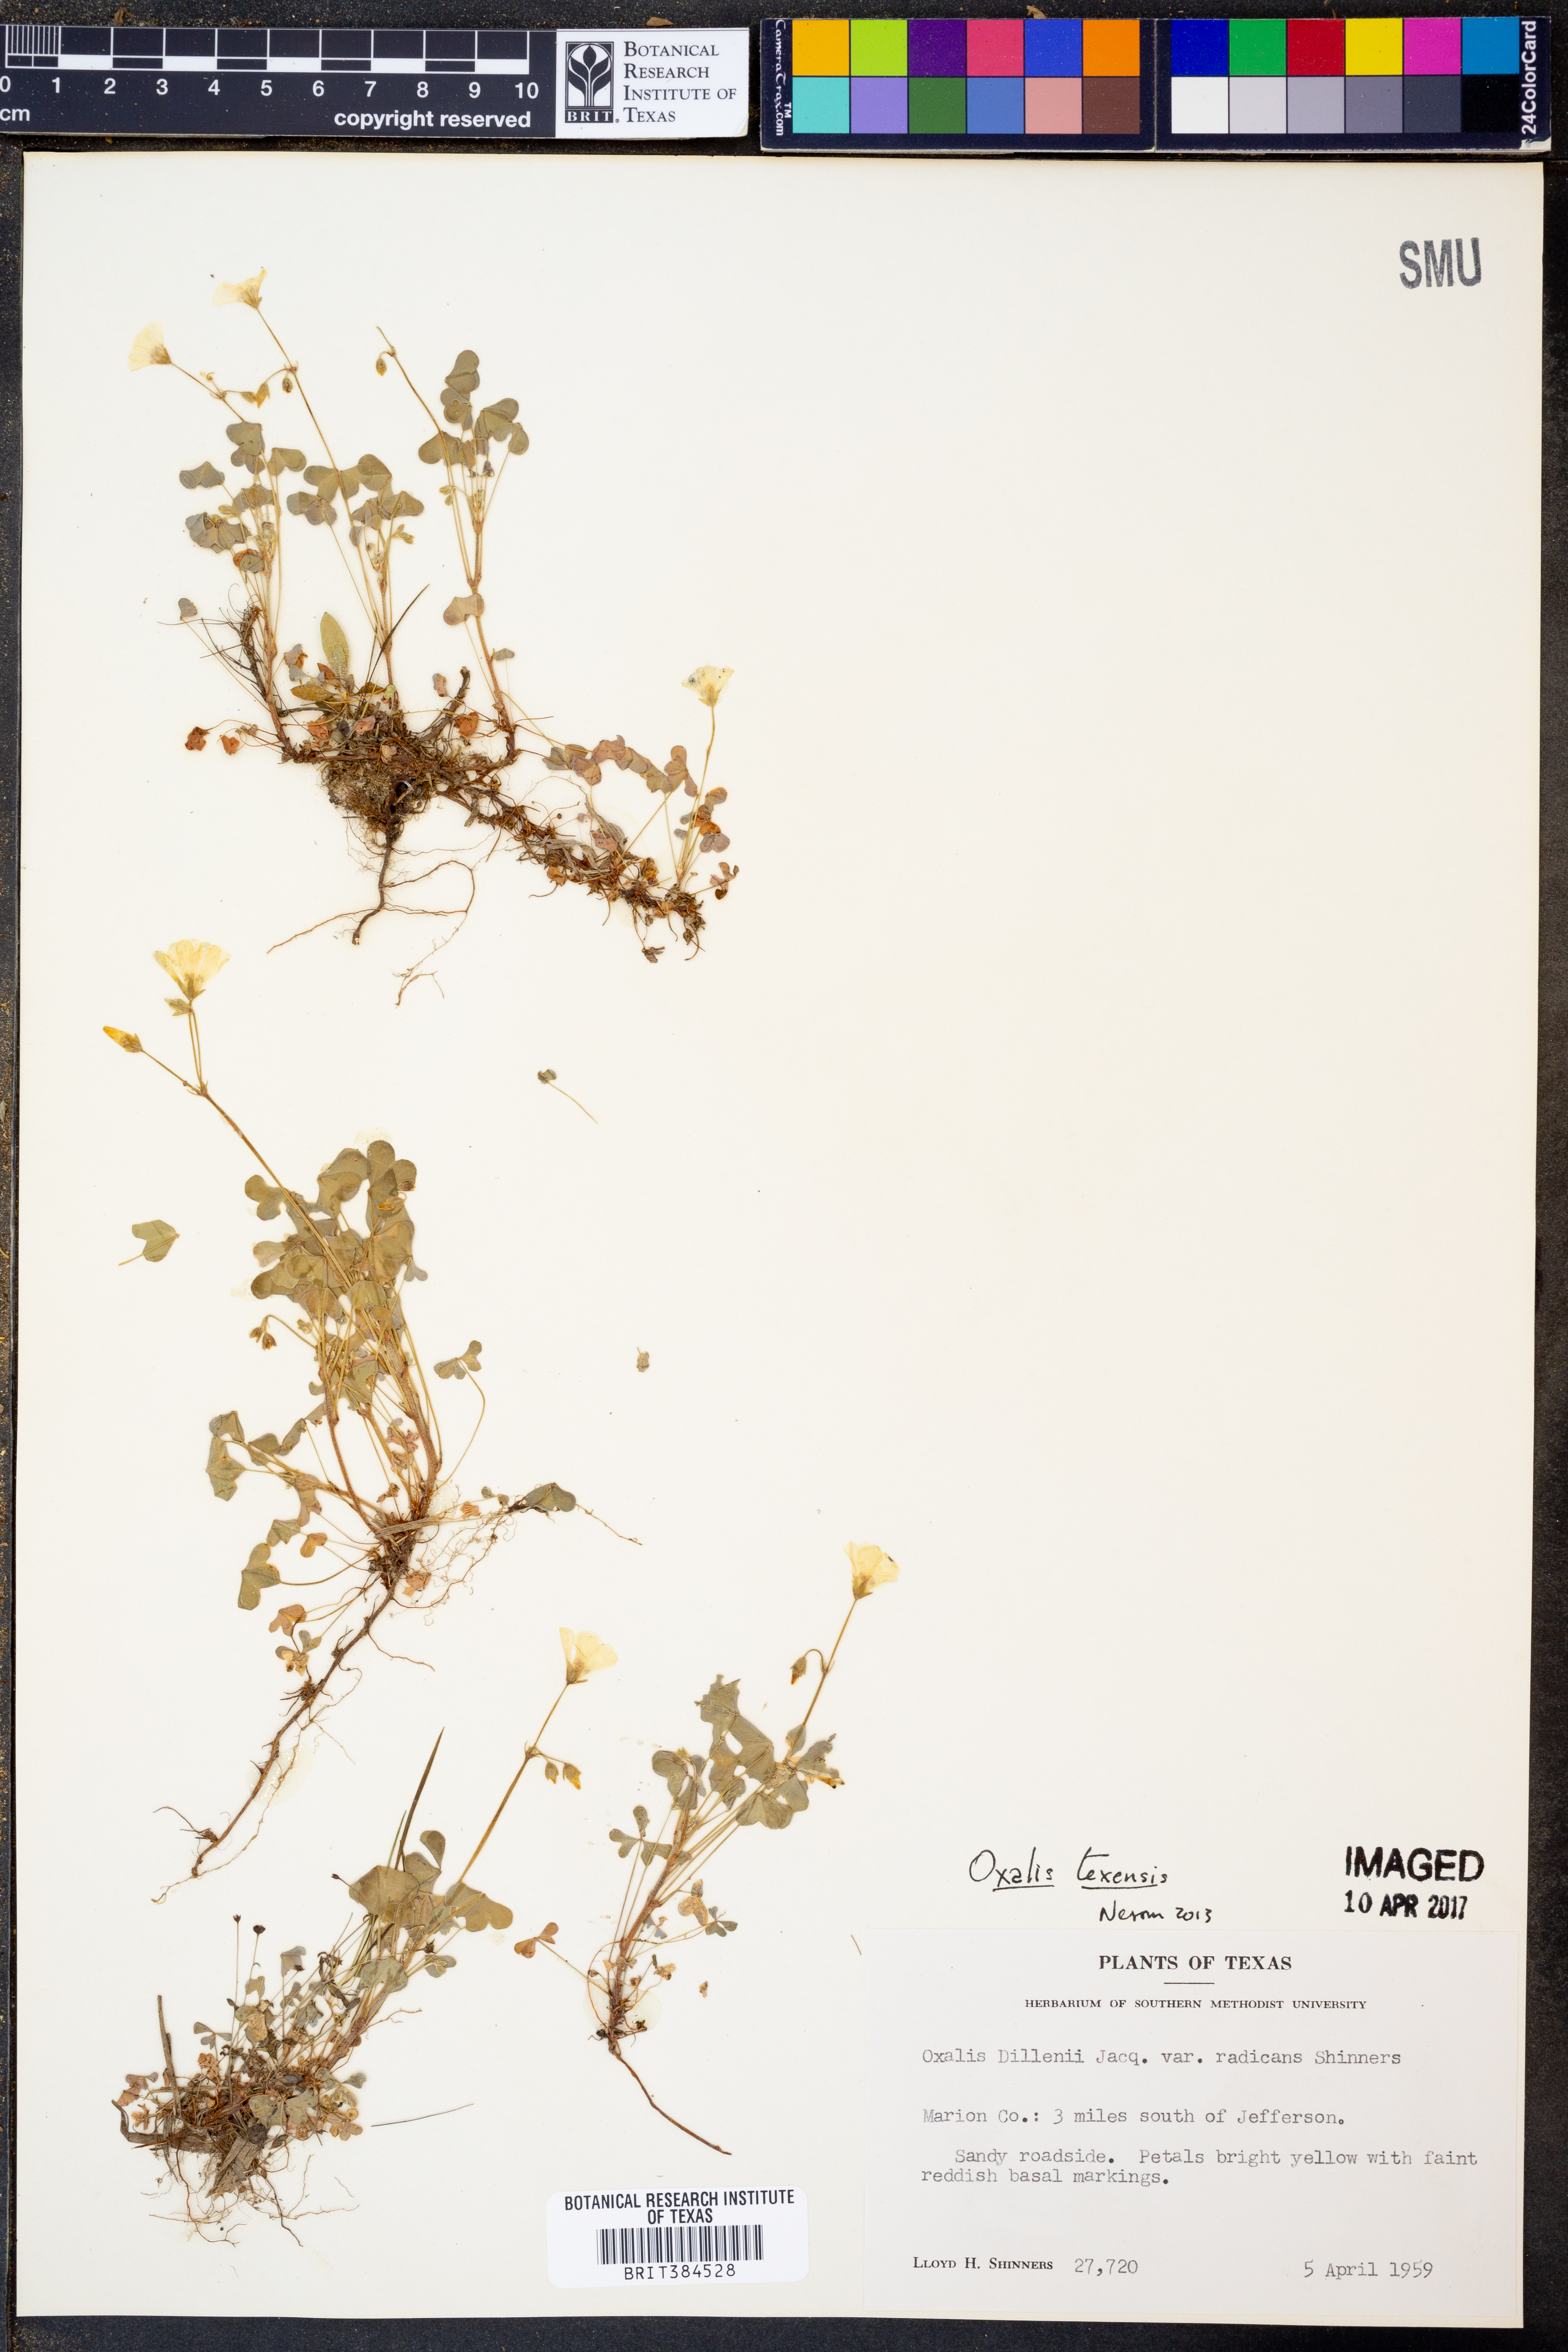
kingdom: Plantae
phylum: Tracheophyta
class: Magnoliopsida
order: Oxalidales
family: Oxalidaceae
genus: Oxalis
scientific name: Oxalis
